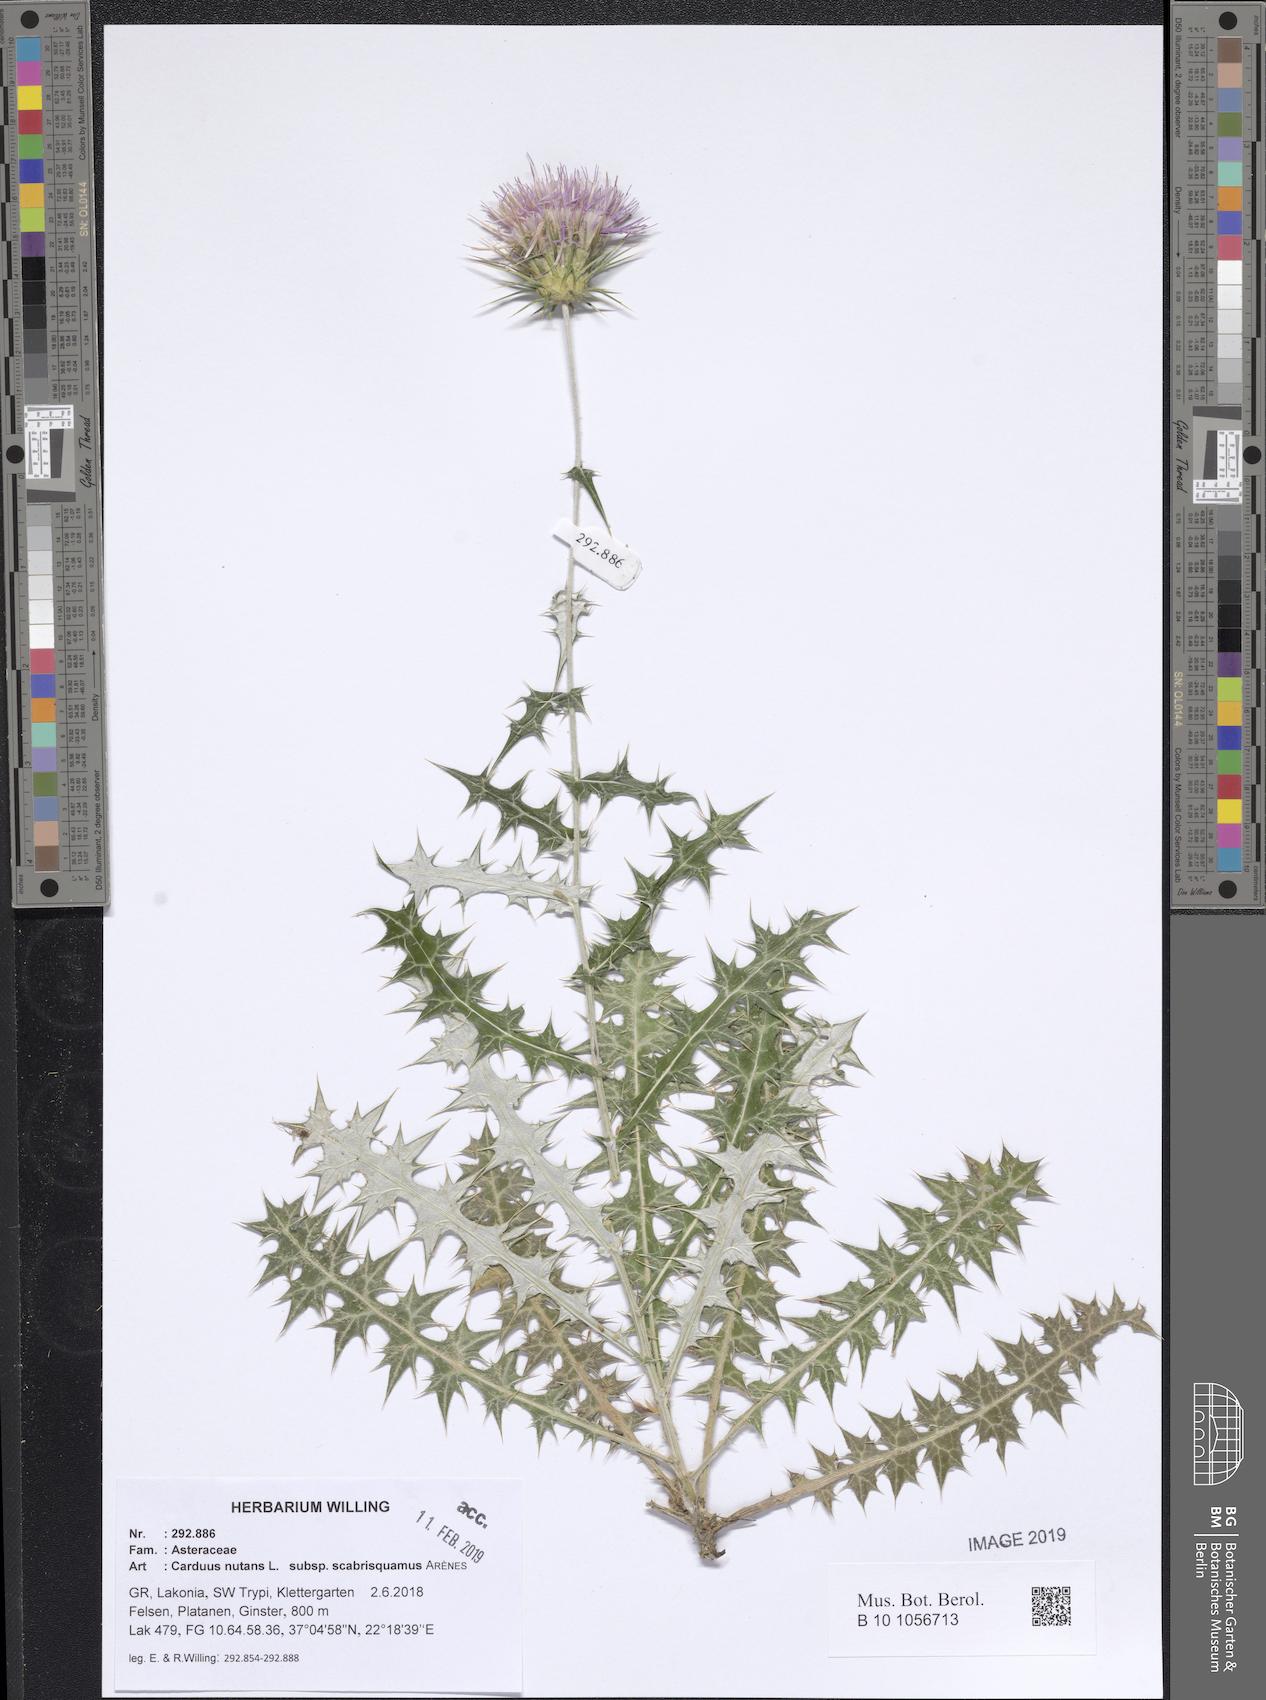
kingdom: Plantae
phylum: Tracheophyta
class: Magnoliopsida
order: Asterales
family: Asteraceae
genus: Carduus
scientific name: Carduus macrocephalus
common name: Giant thistle
